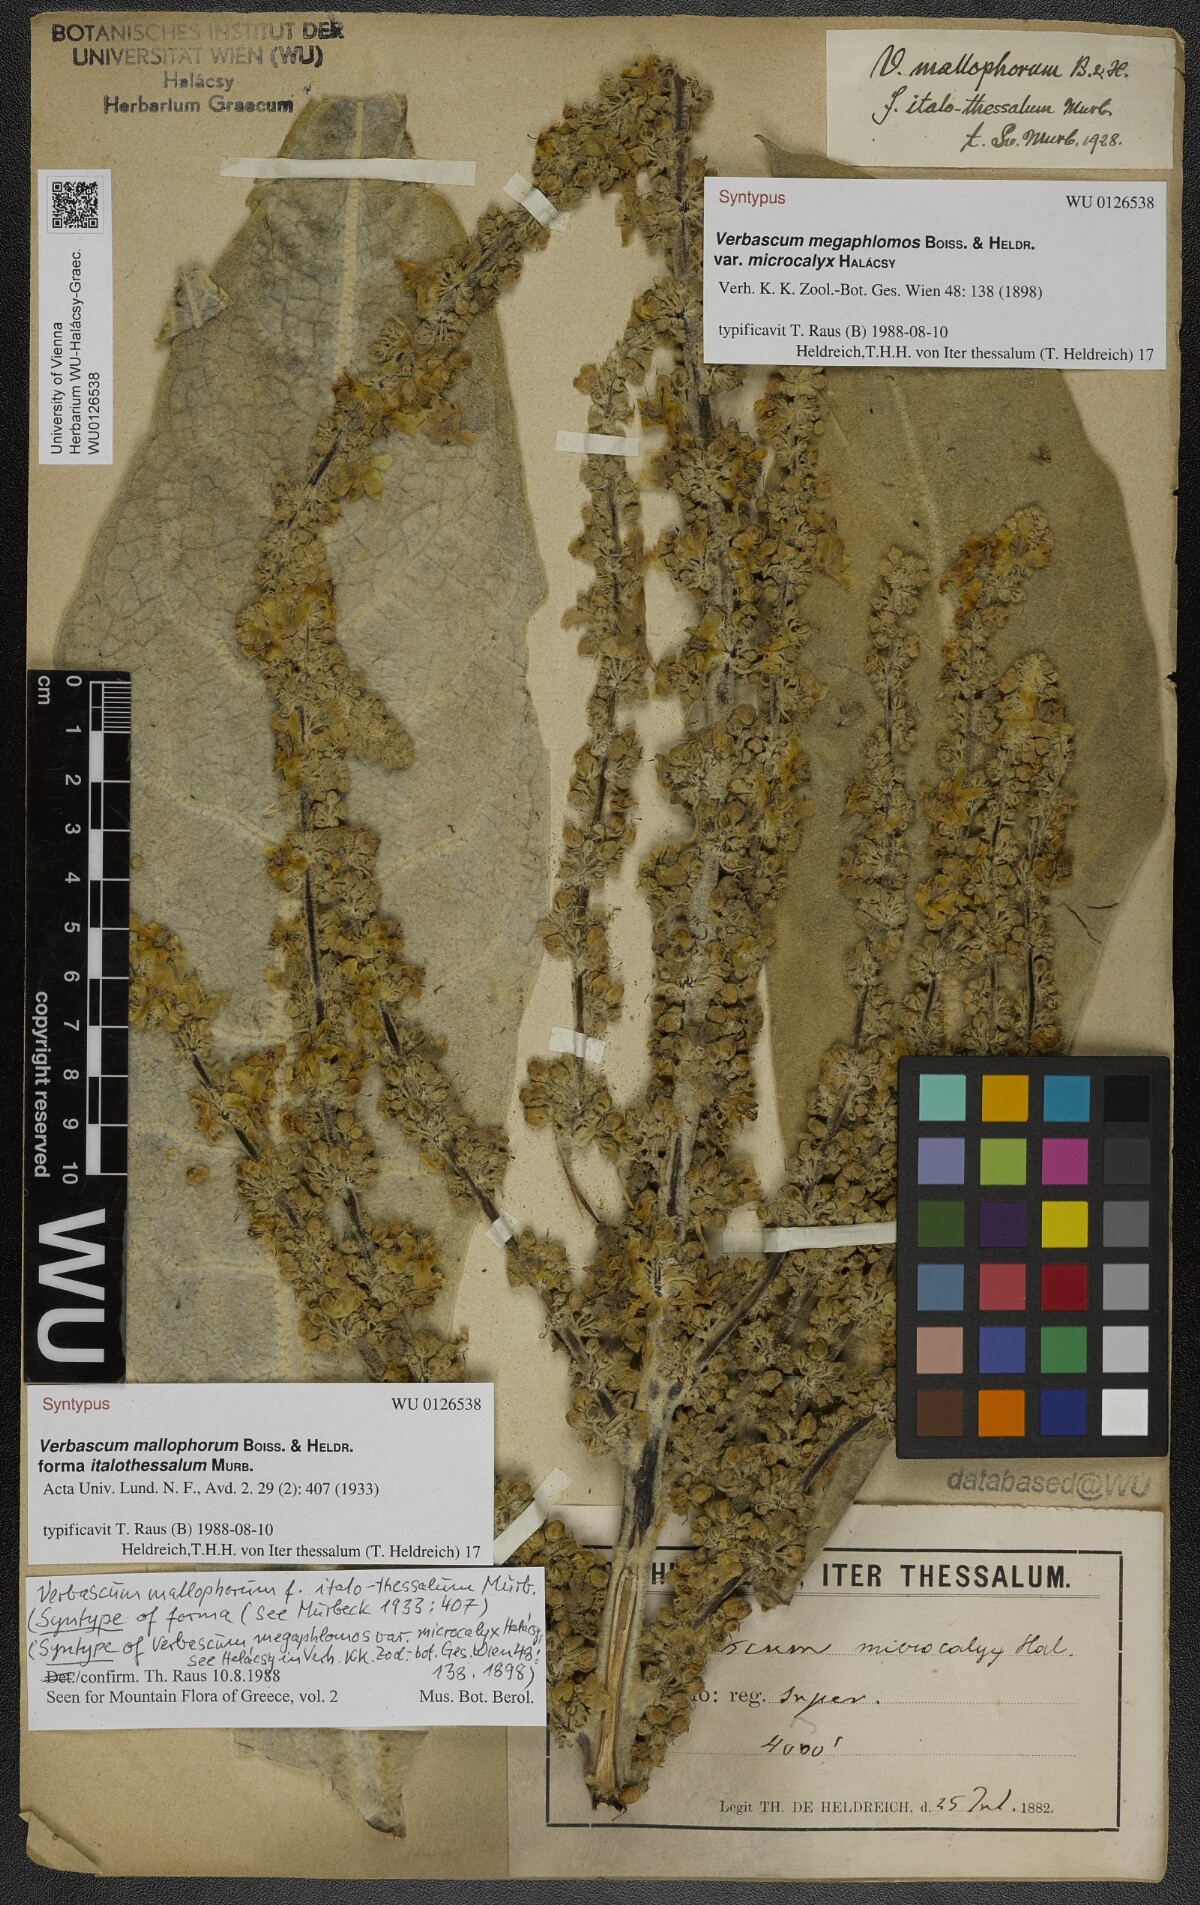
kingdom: Plantae
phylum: Tracheophyta
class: Magnoliopsida
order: Lamiales
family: Scrophulariaceae
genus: Verbascum
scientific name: Verbascum speciosum
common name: Hungarian mullein
